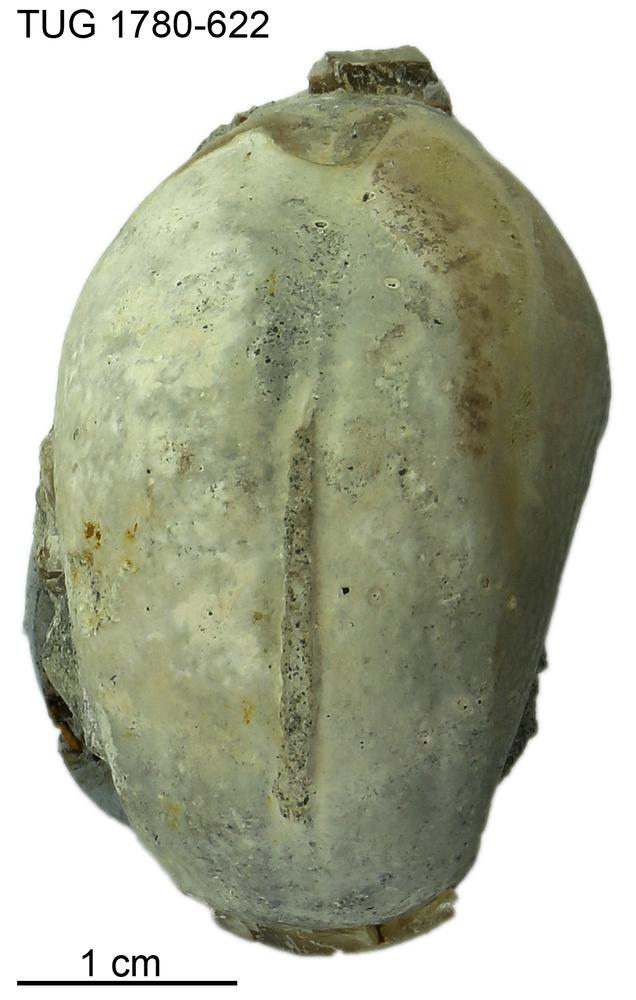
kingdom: Animalia
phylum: Mollusca
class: Gastropoda
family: Bucaniidae
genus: Salpingostoma
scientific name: Salpingostoma locator
